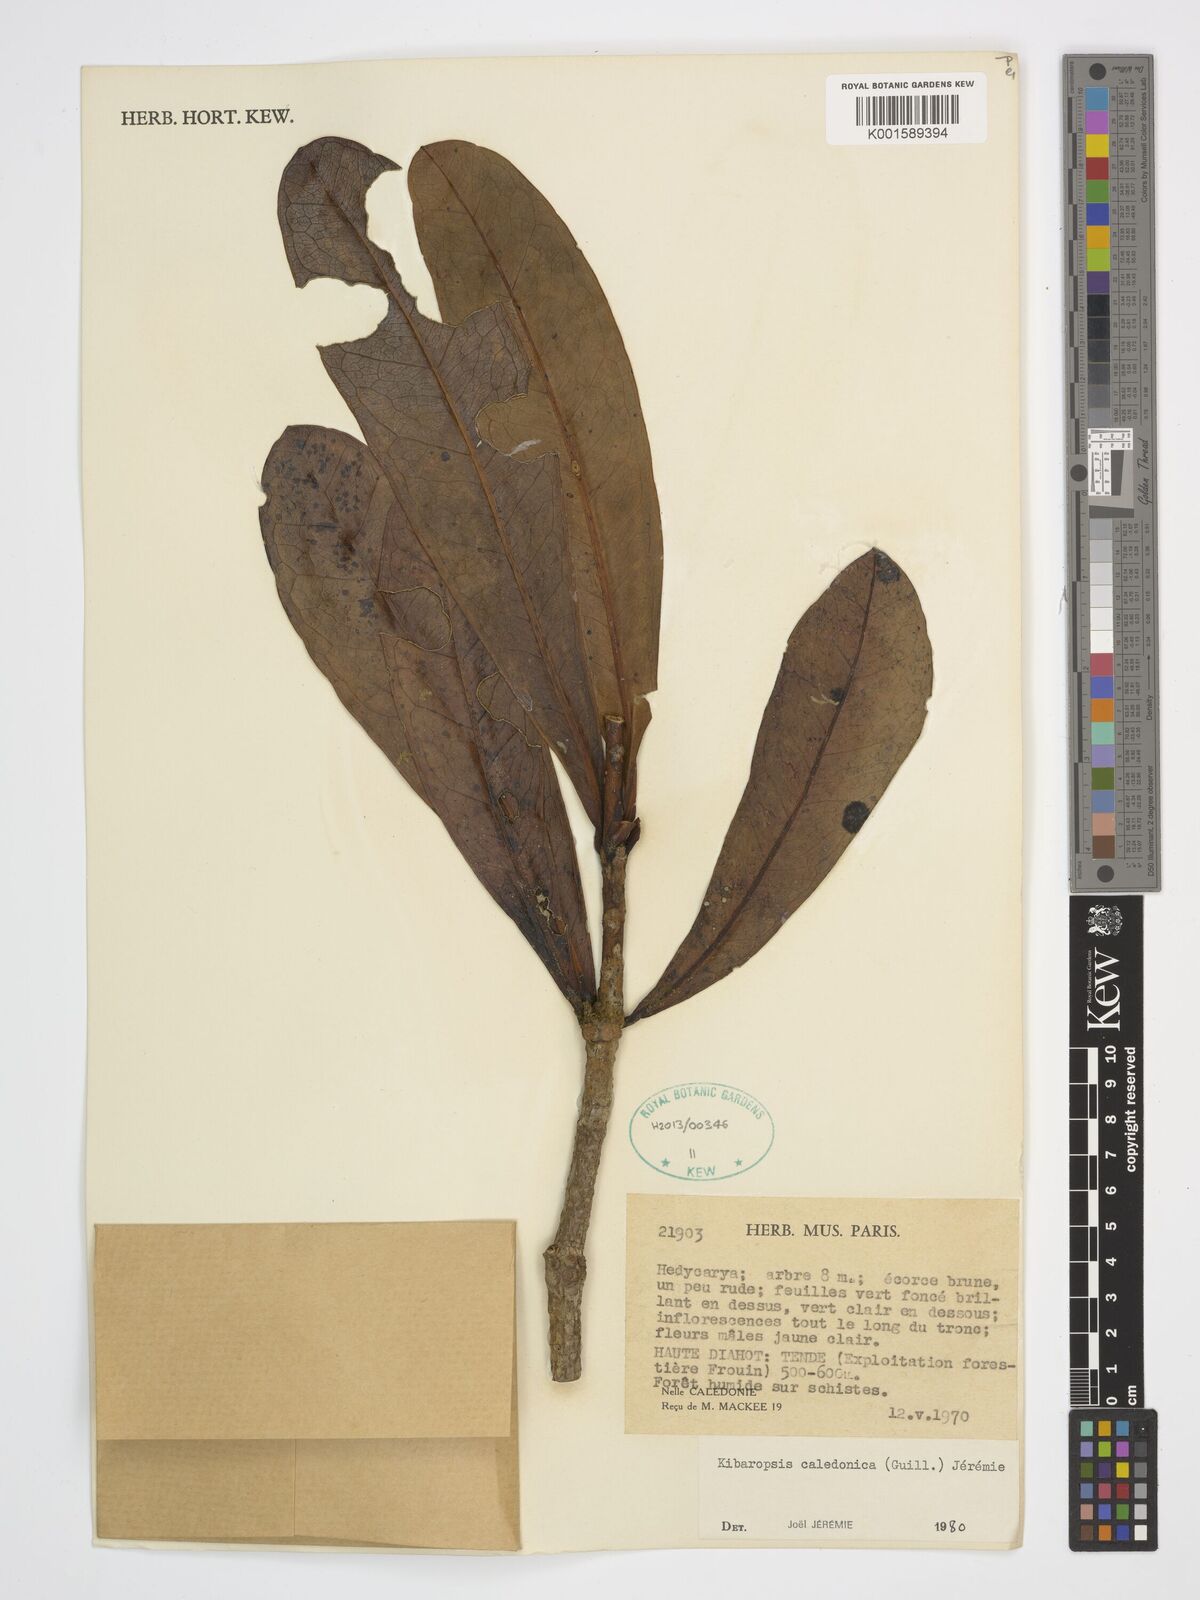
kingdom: Plantae
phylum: Tracheophyta
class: Magnoliopsida
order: Laurales
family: Monimiaceae
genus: Kibaropsis
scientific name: Kibaropsis caledonica
